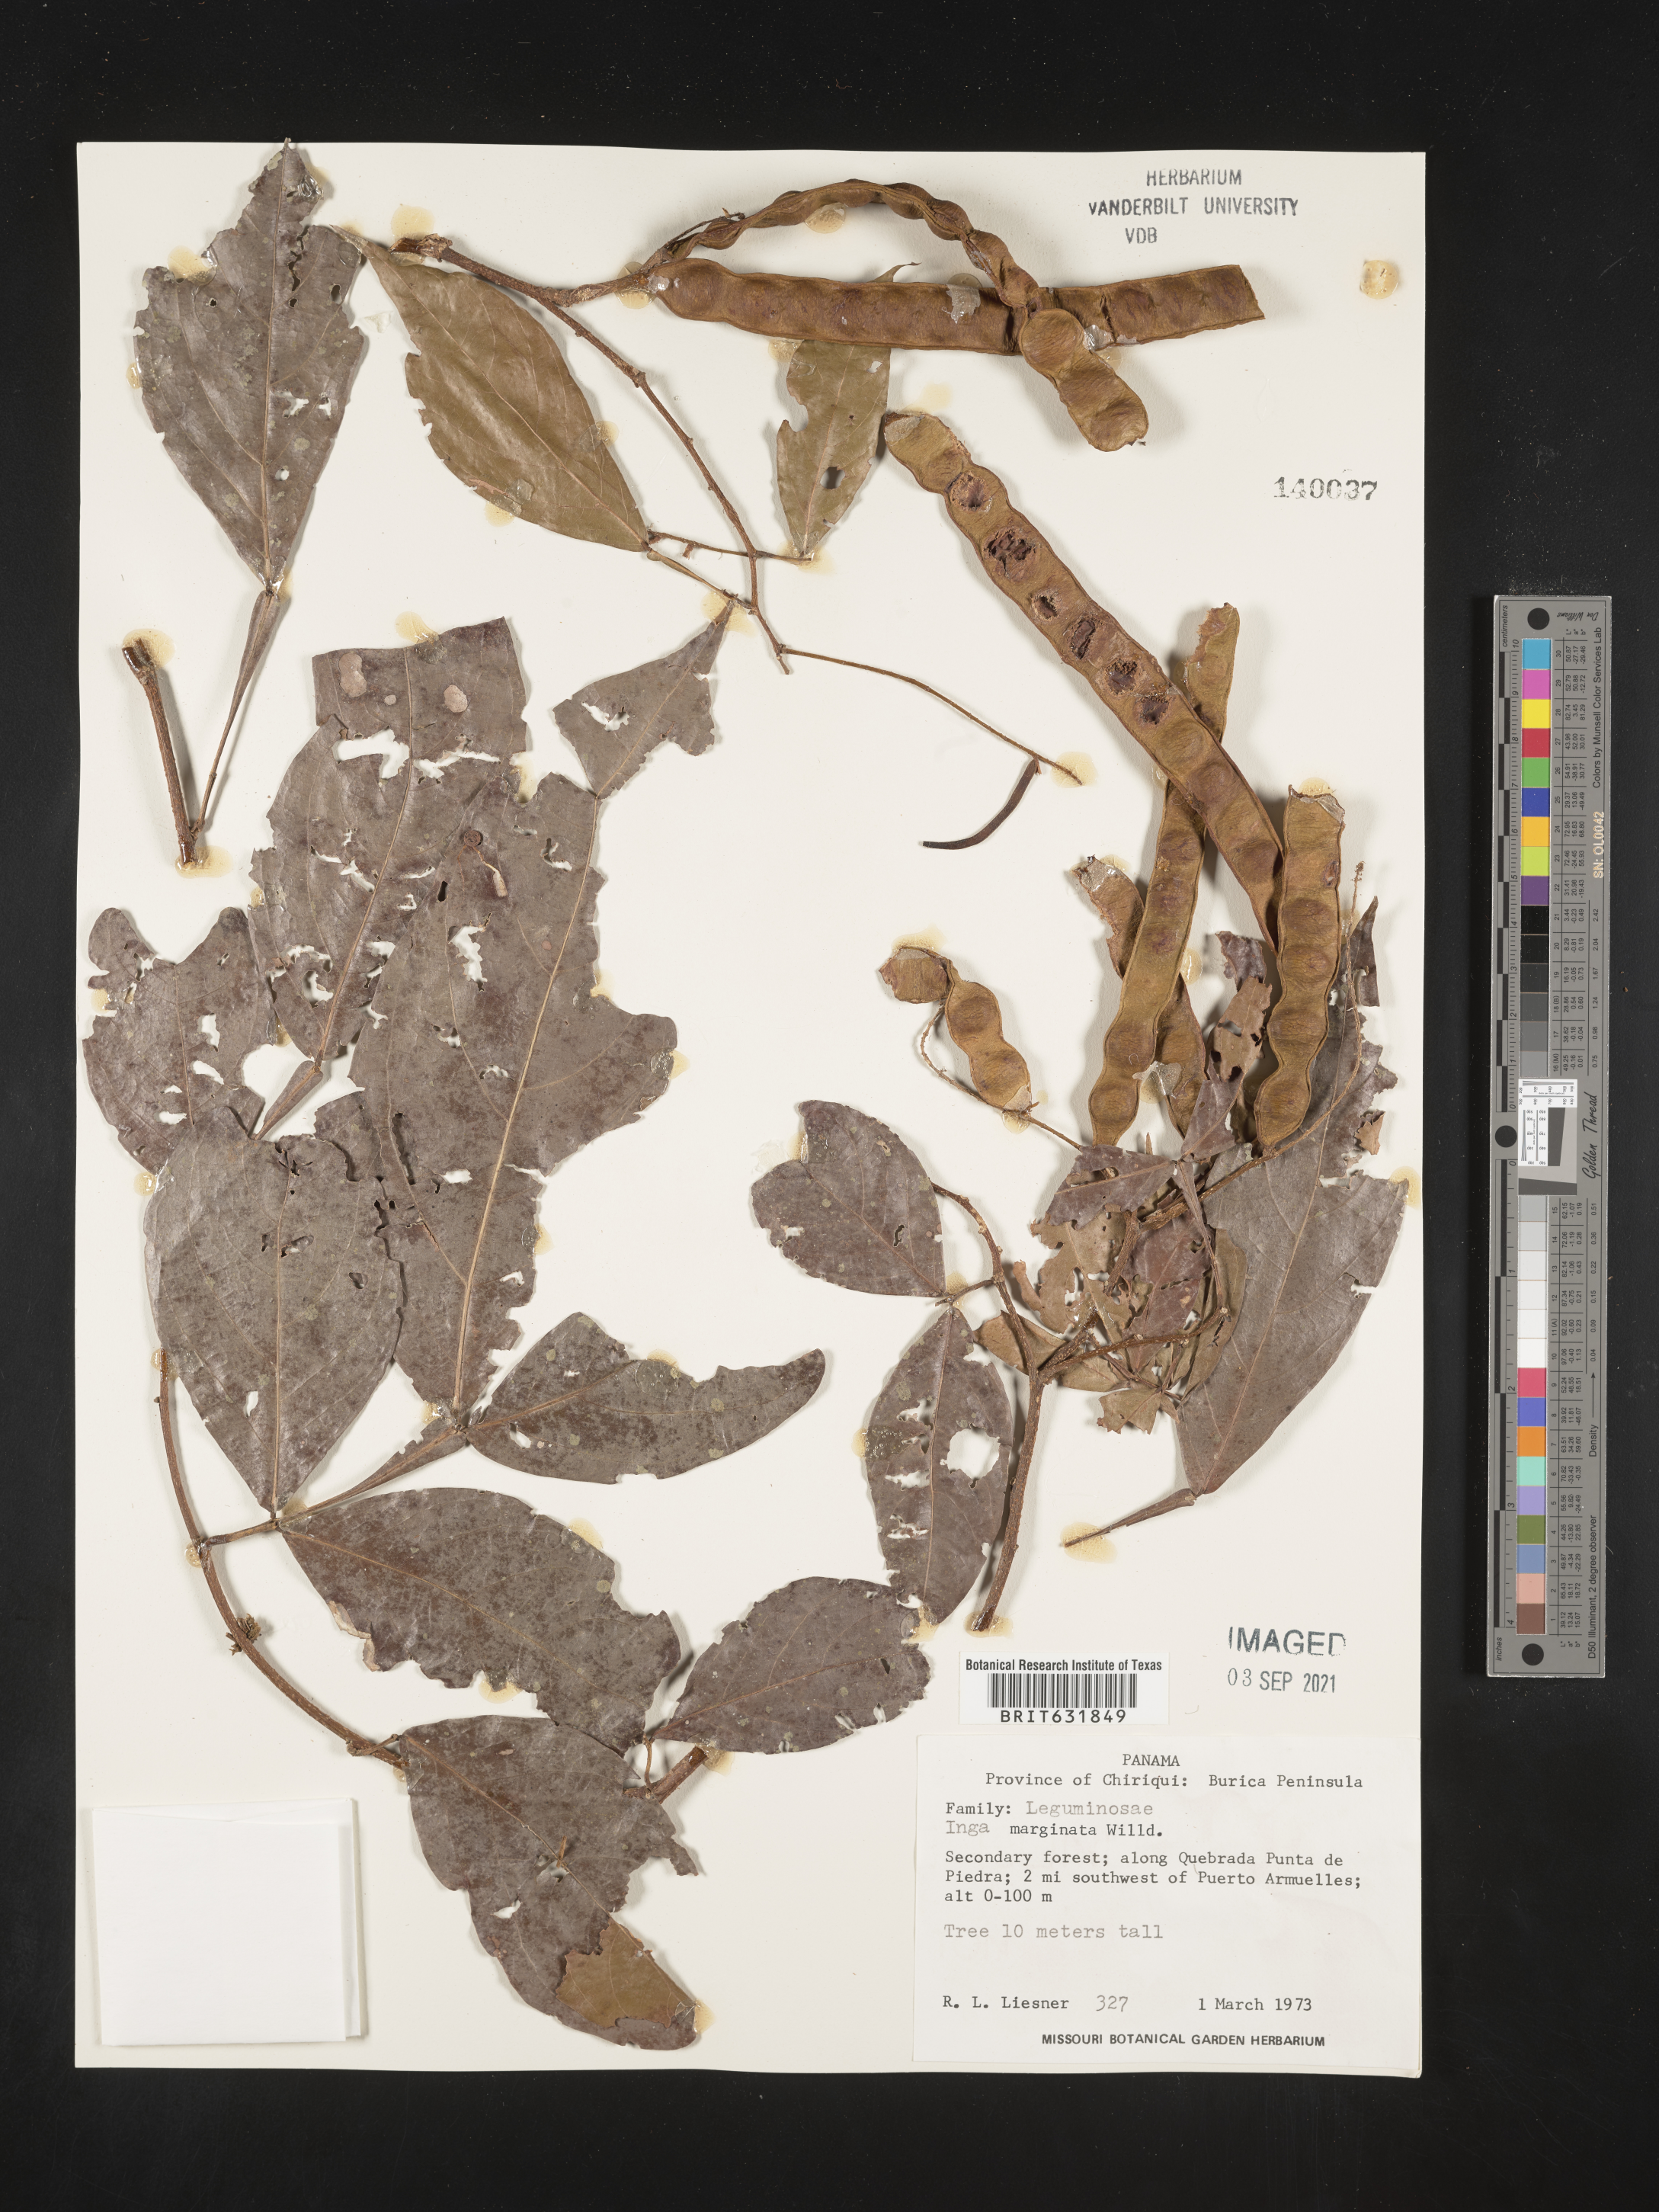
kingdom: Plantae
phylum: Tracheophyta
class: Magnoliopsida
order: Fabales
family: Fabaceae
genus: Inga
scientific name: Inga
